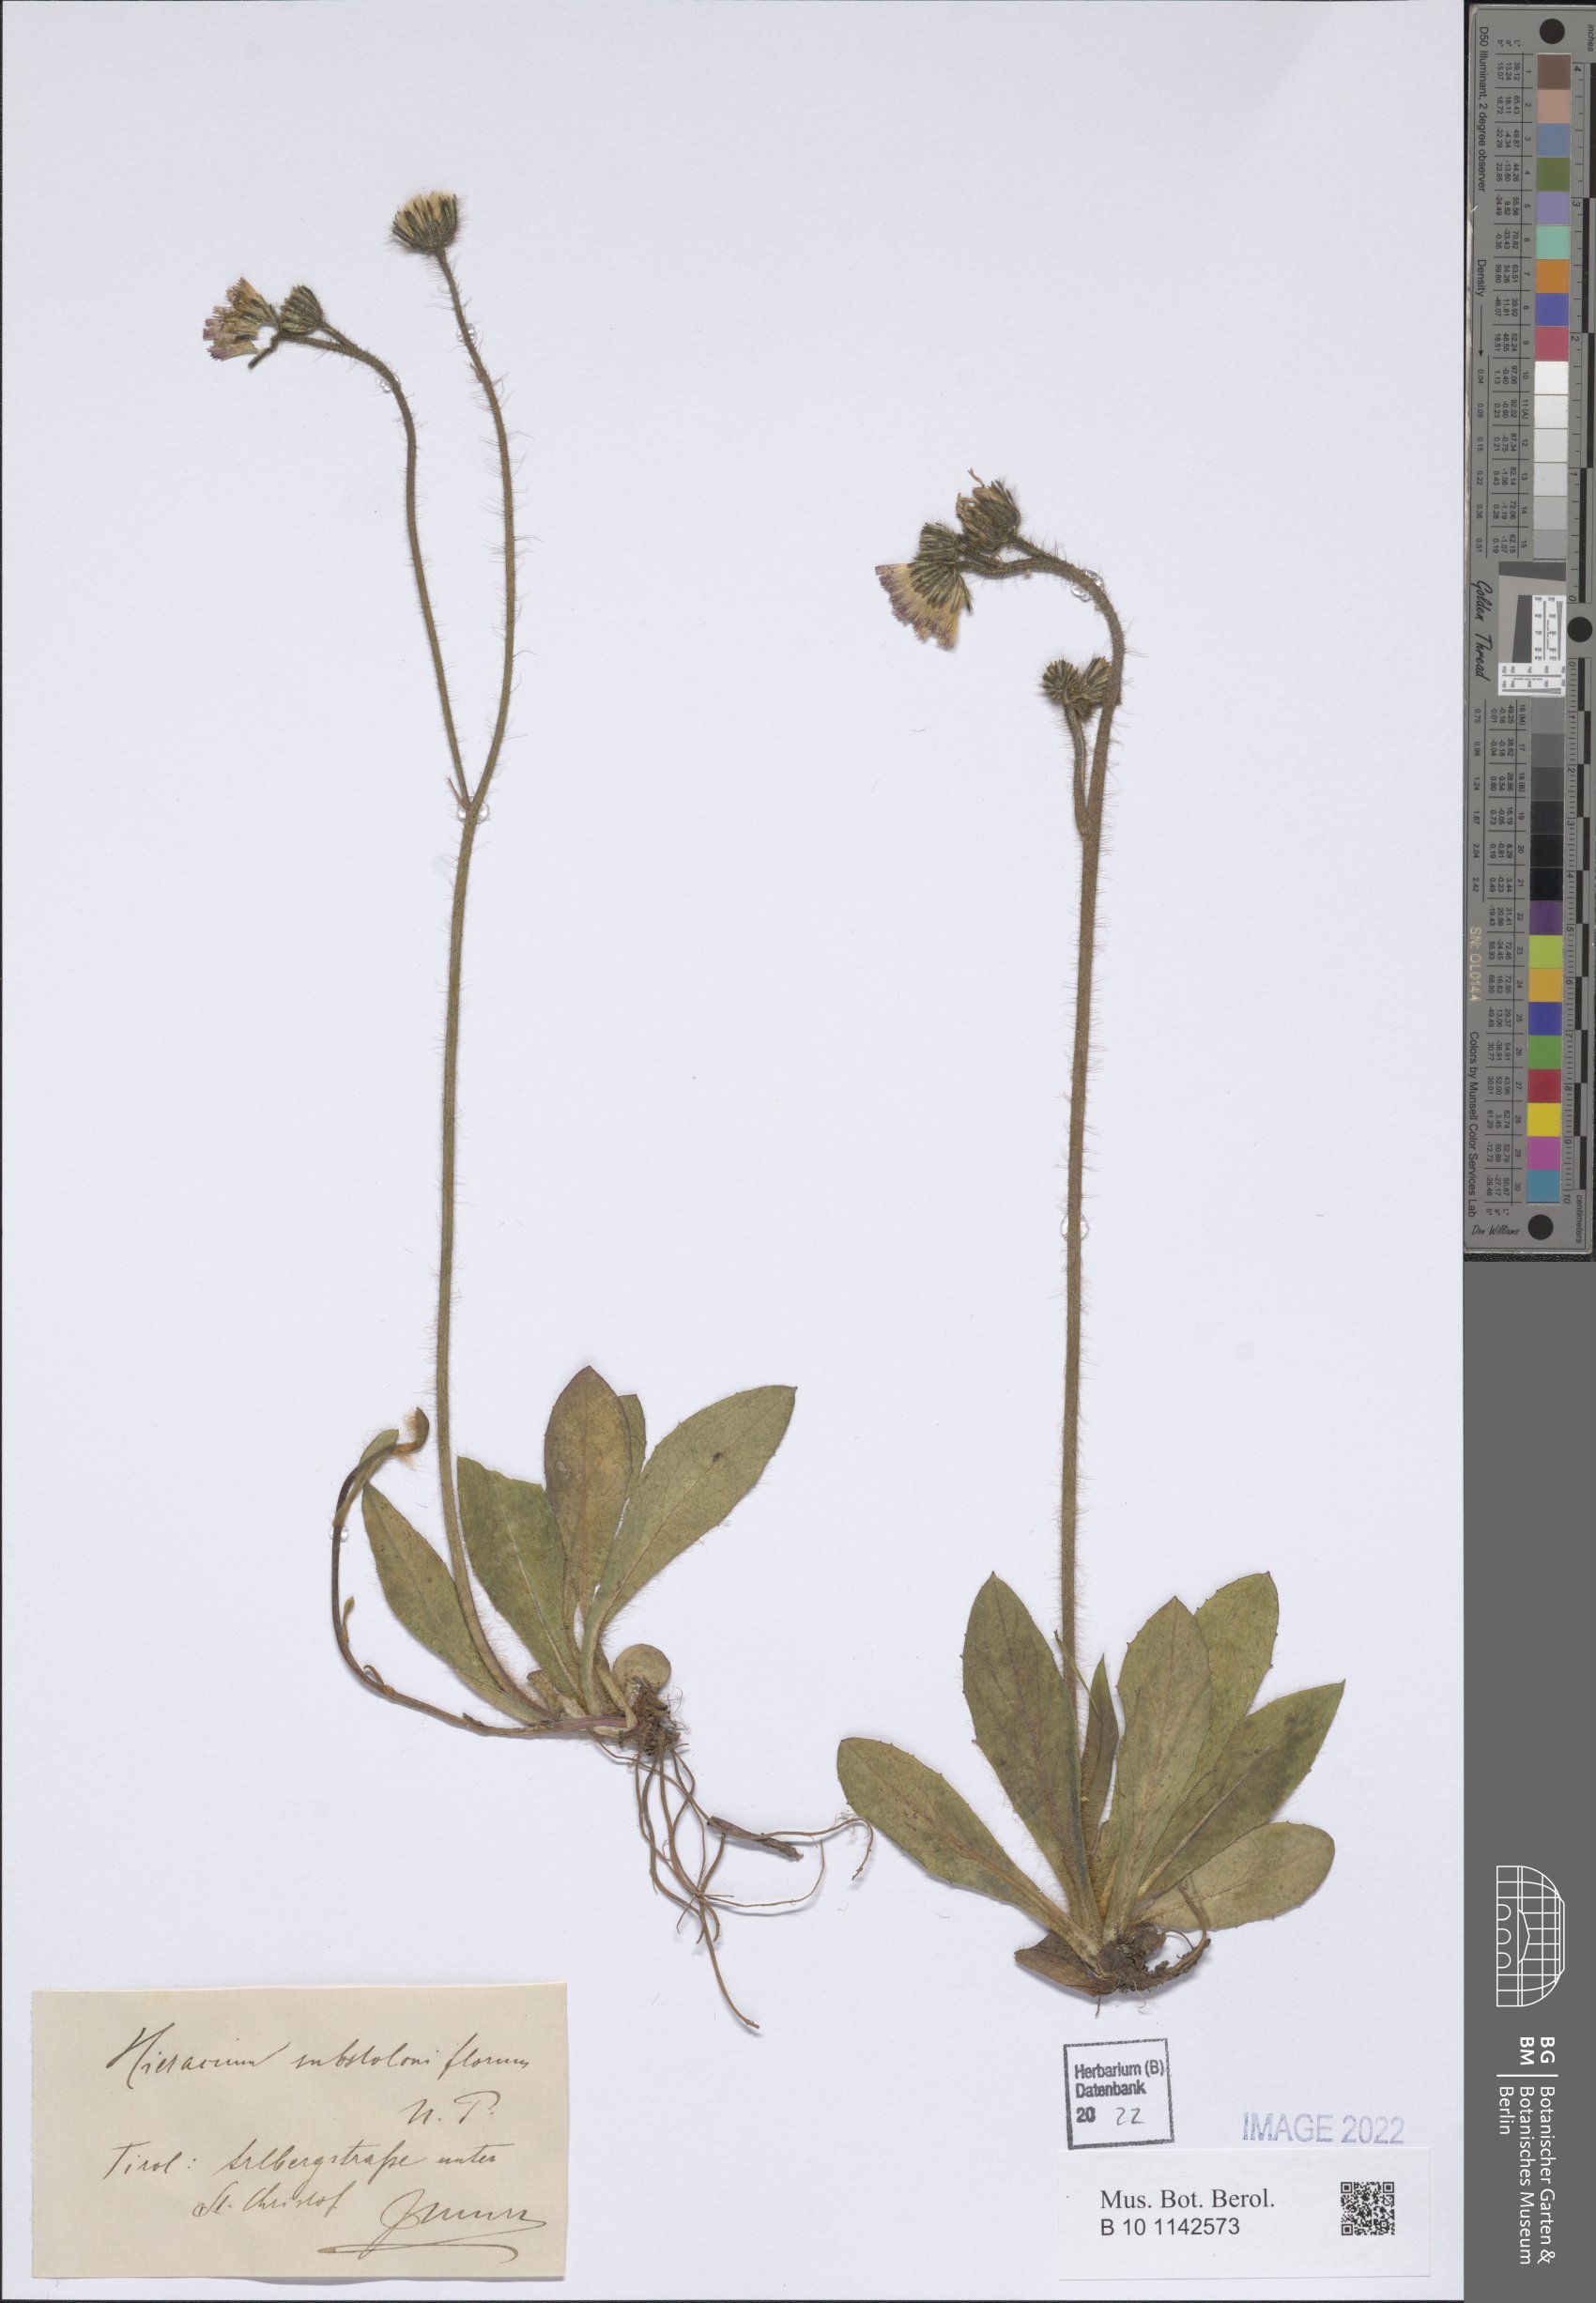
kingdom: Plantae
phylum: Tracheophyta
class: Magnoliopsida
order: Asterales
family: Asteraceae
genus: Pilosella
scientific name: Pilosella substoloniflora
